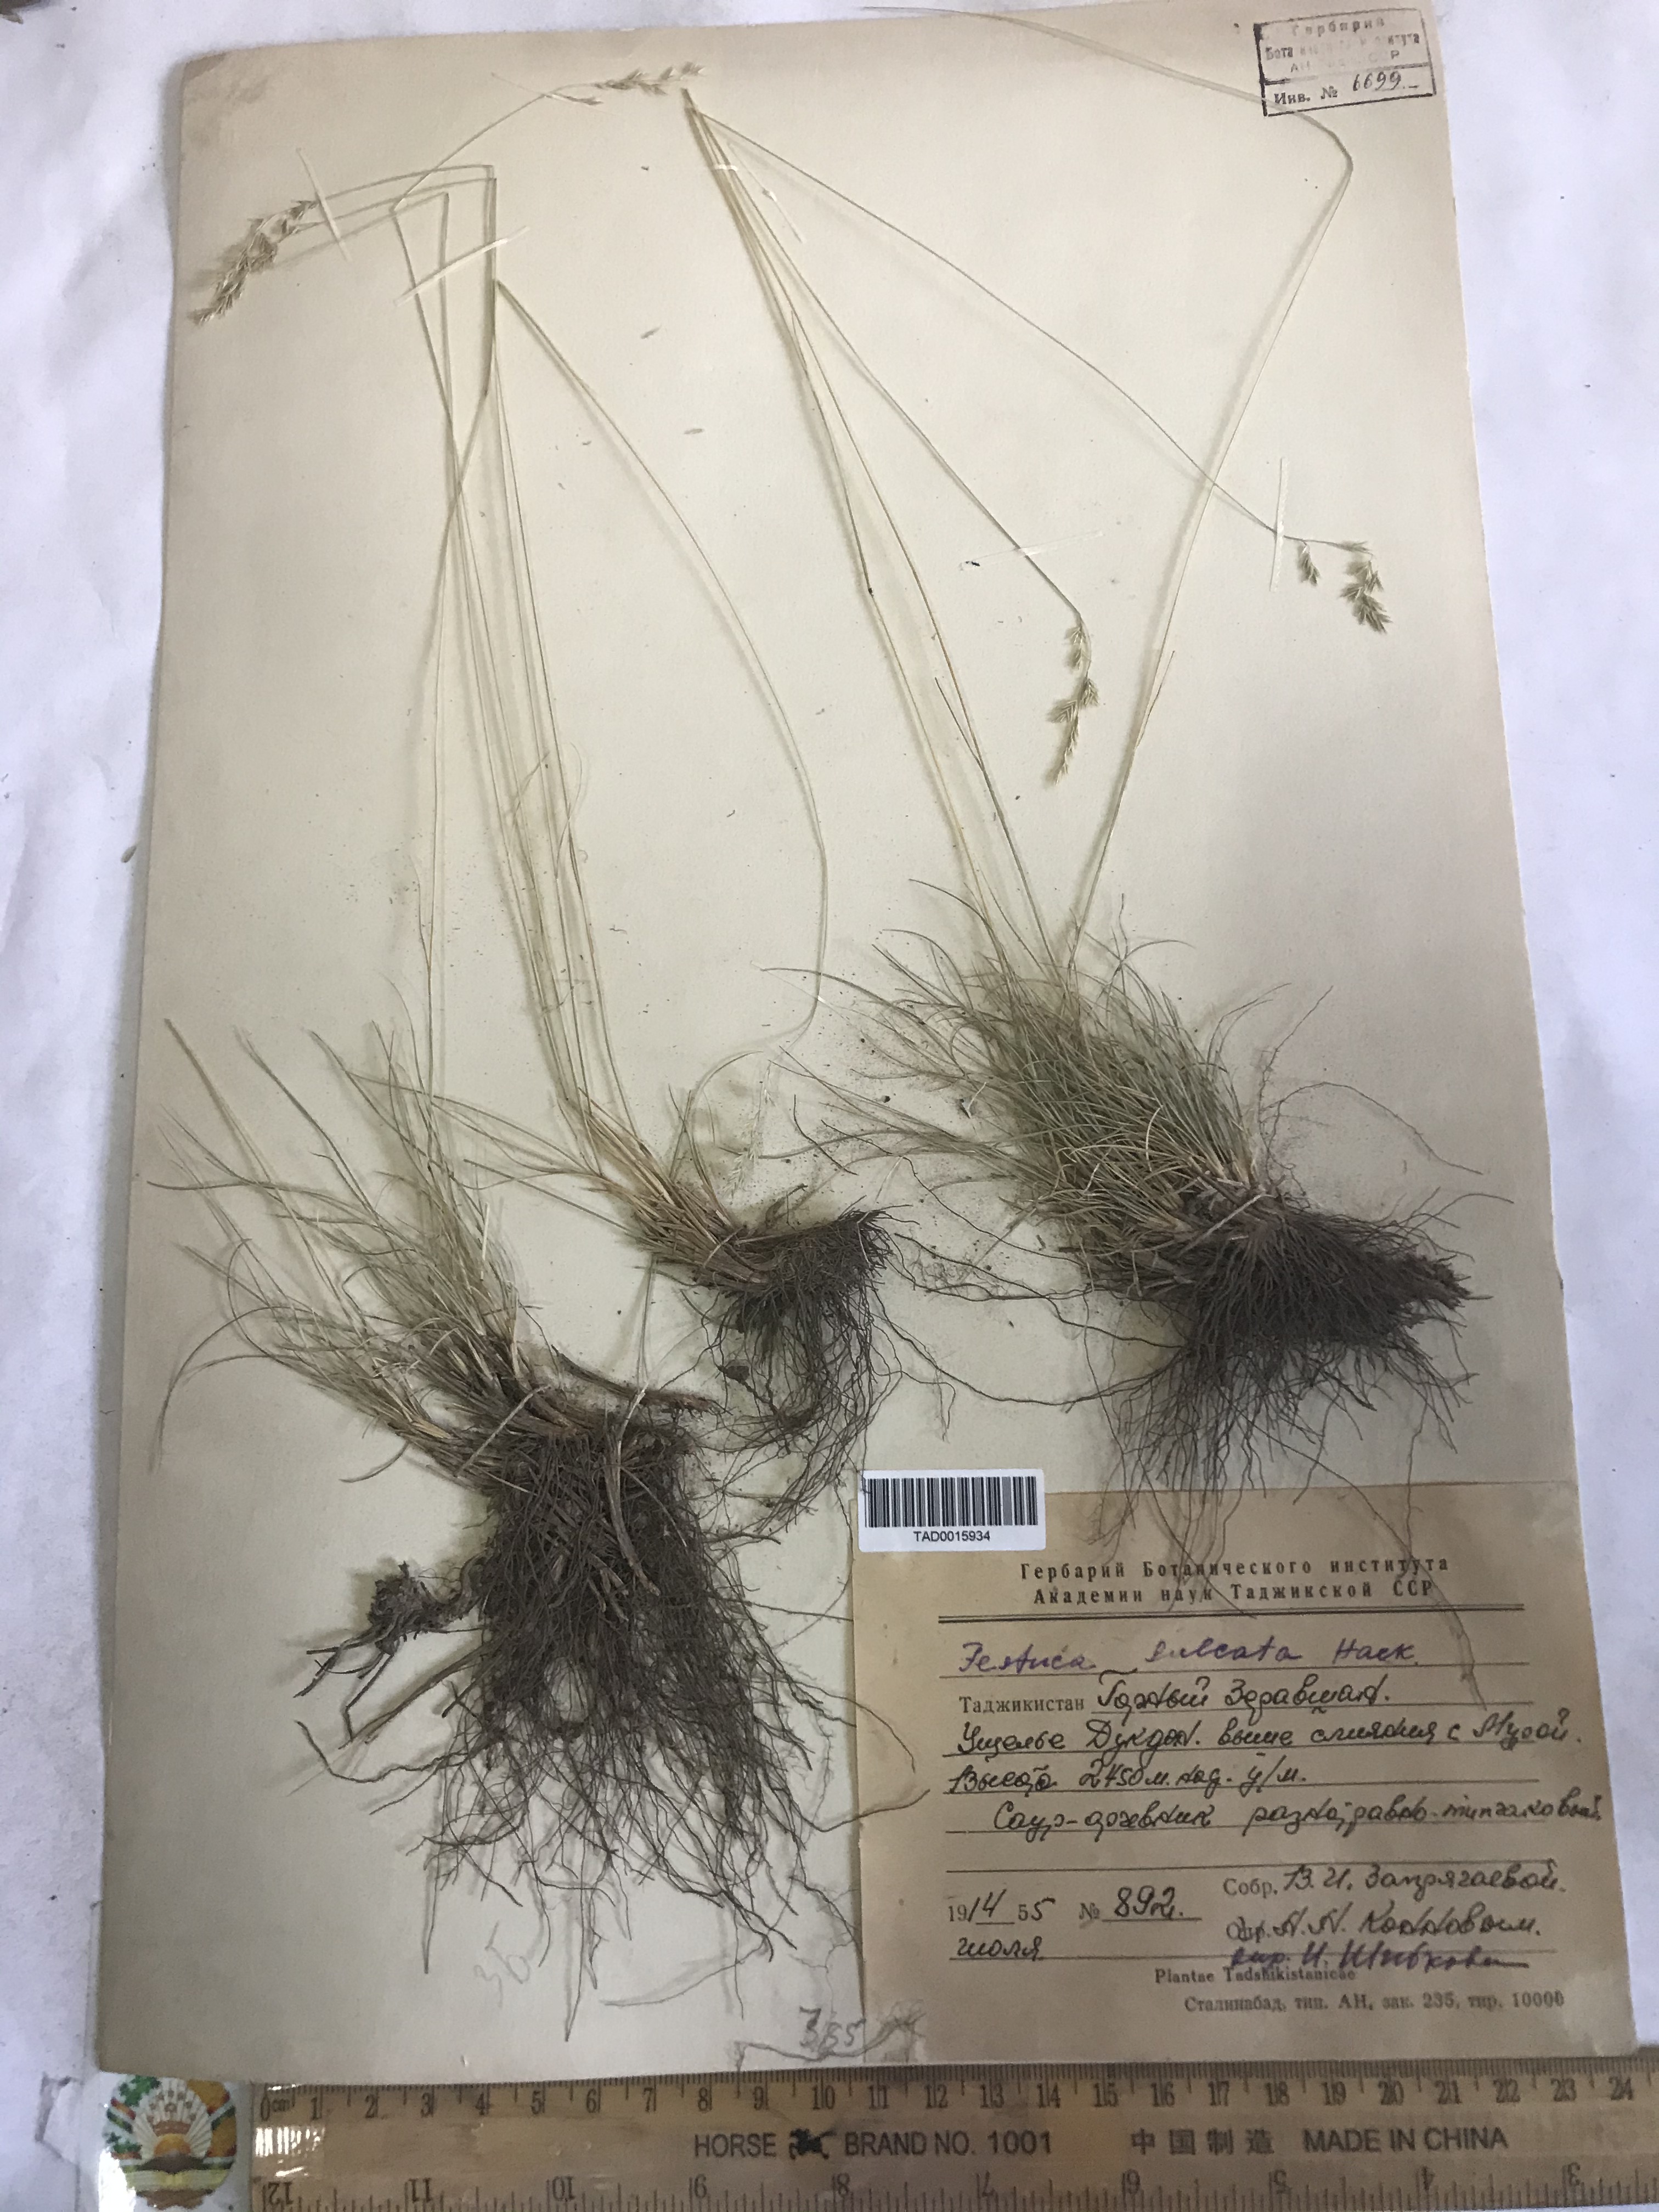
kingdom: Plantae
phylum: Tracheophyta
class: Liliopsida
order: Poales
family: Poaceae
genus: Festuca
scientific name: Festuca sulcata
